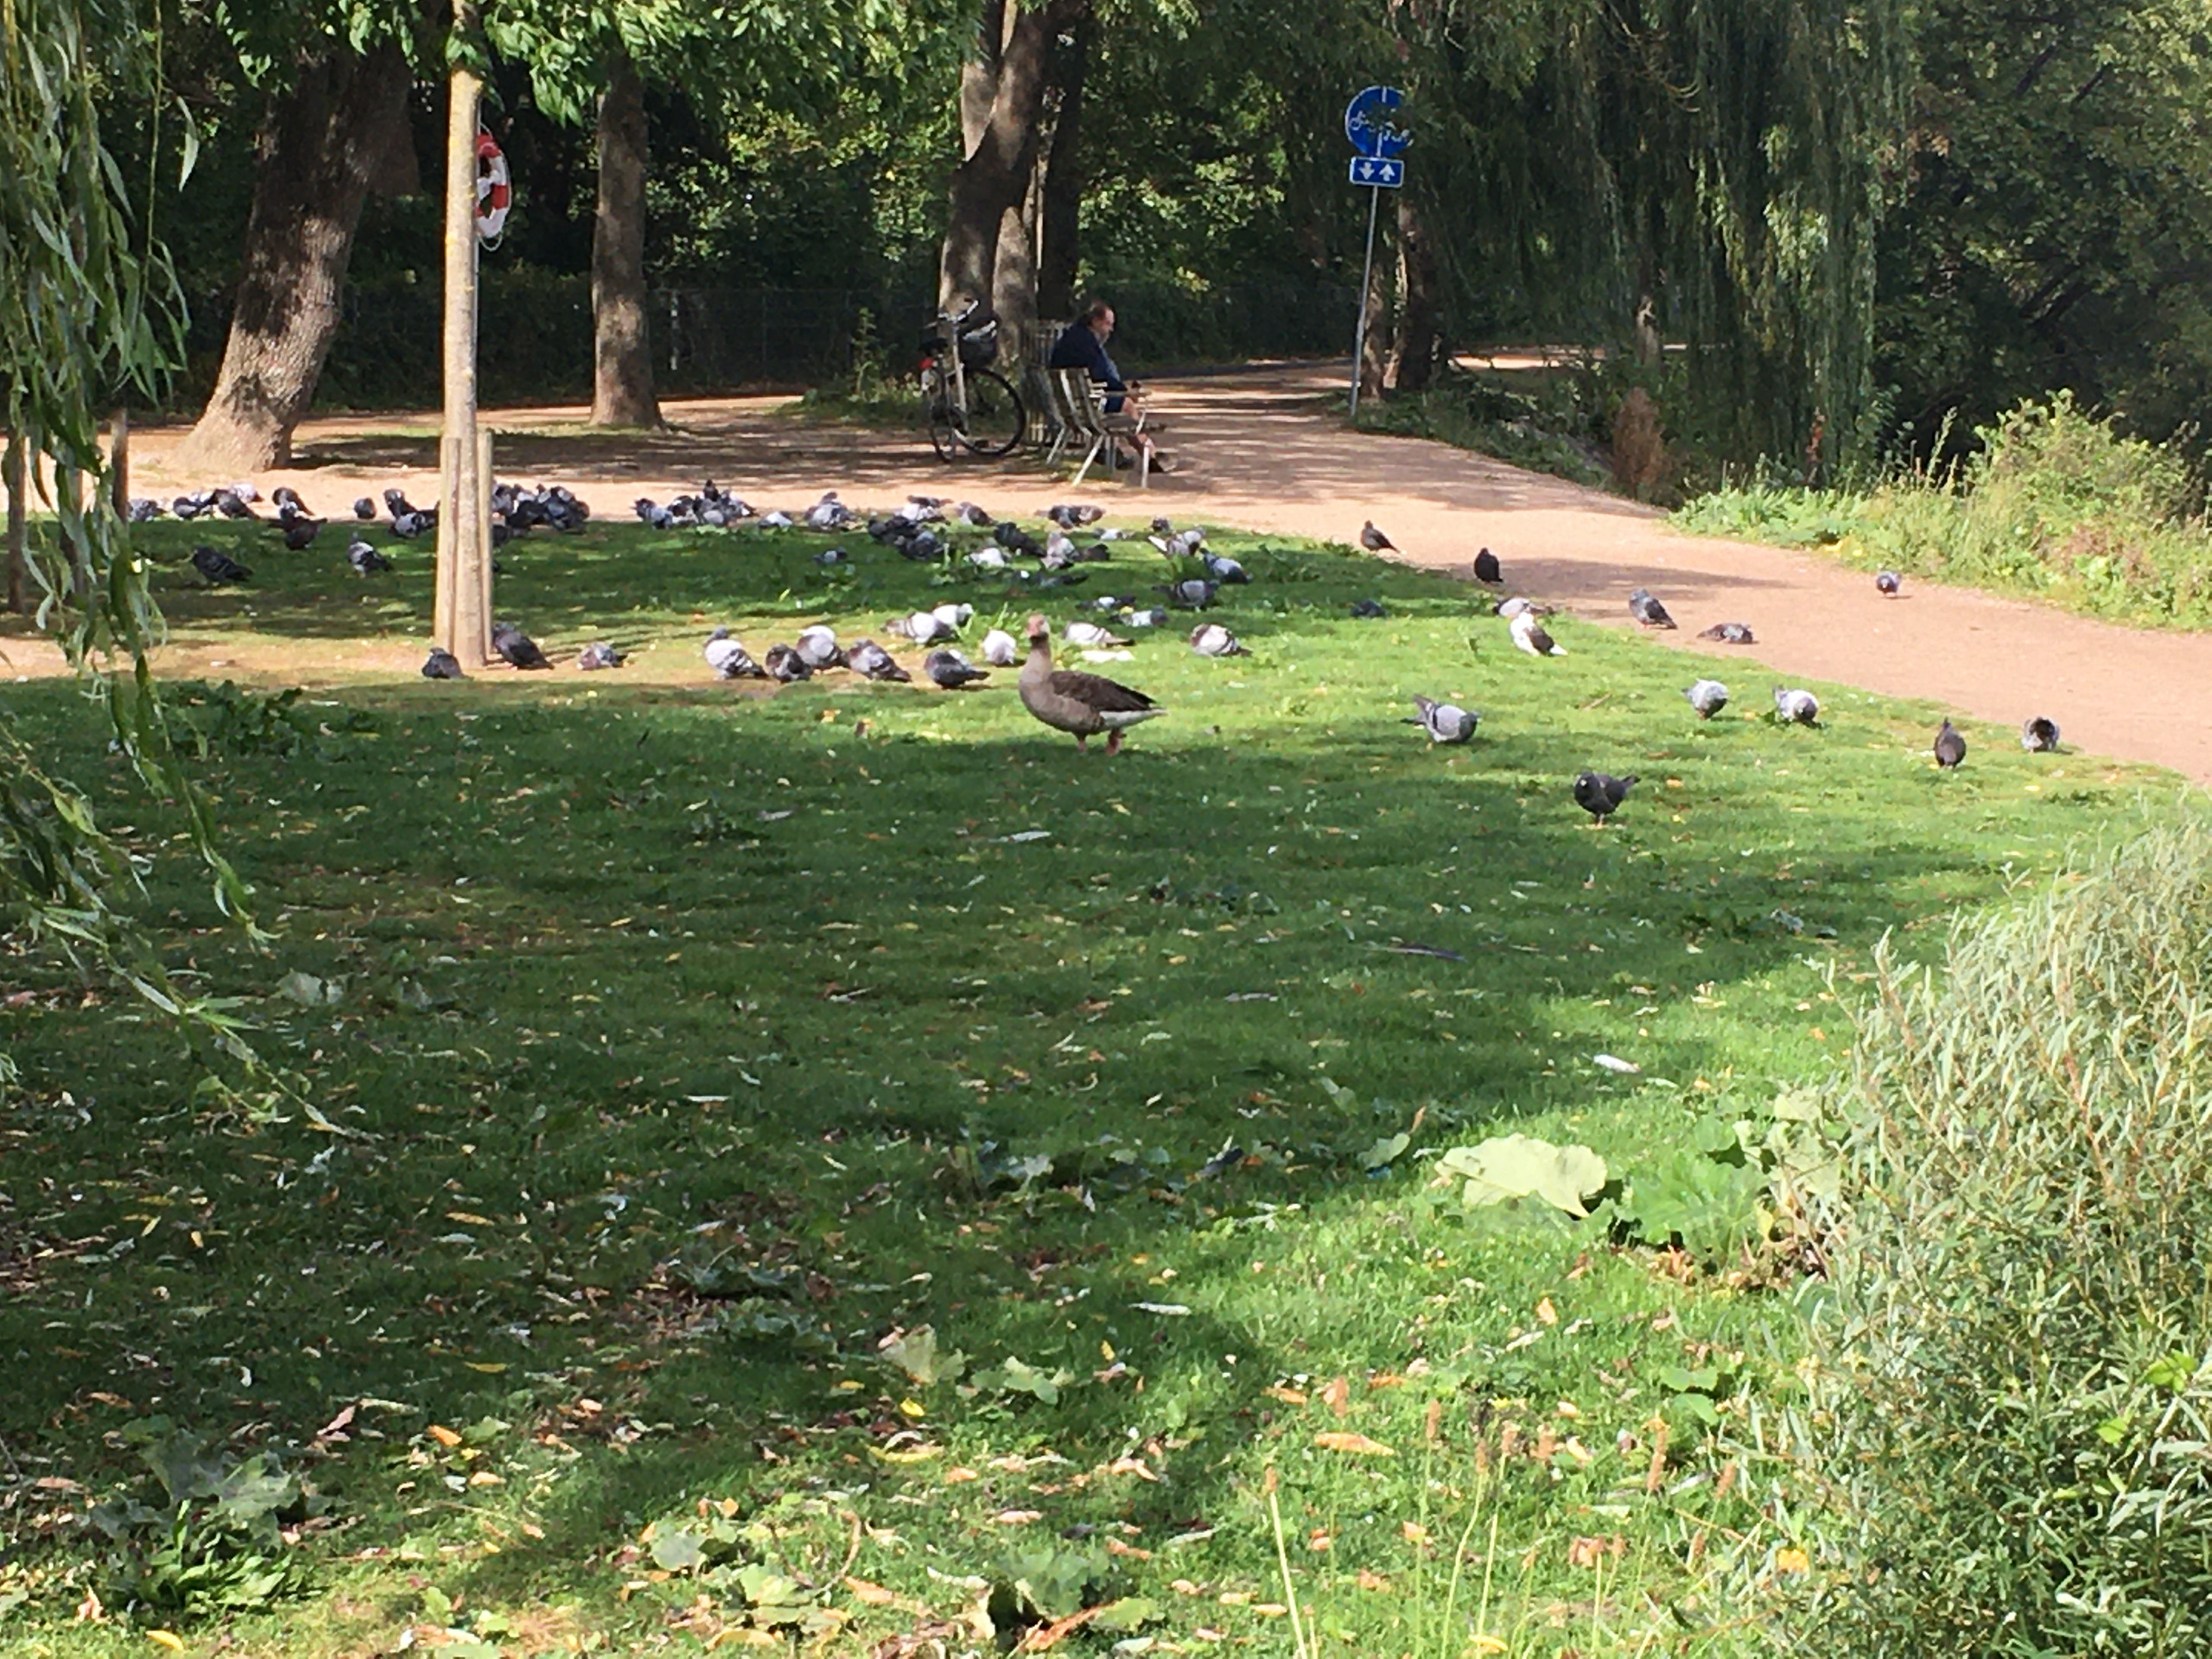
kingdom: Animalia
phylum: Chordata
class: Aves
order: Anseriformes
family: Anatidae
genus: Anser
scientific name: Anser anser
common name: Grågås
